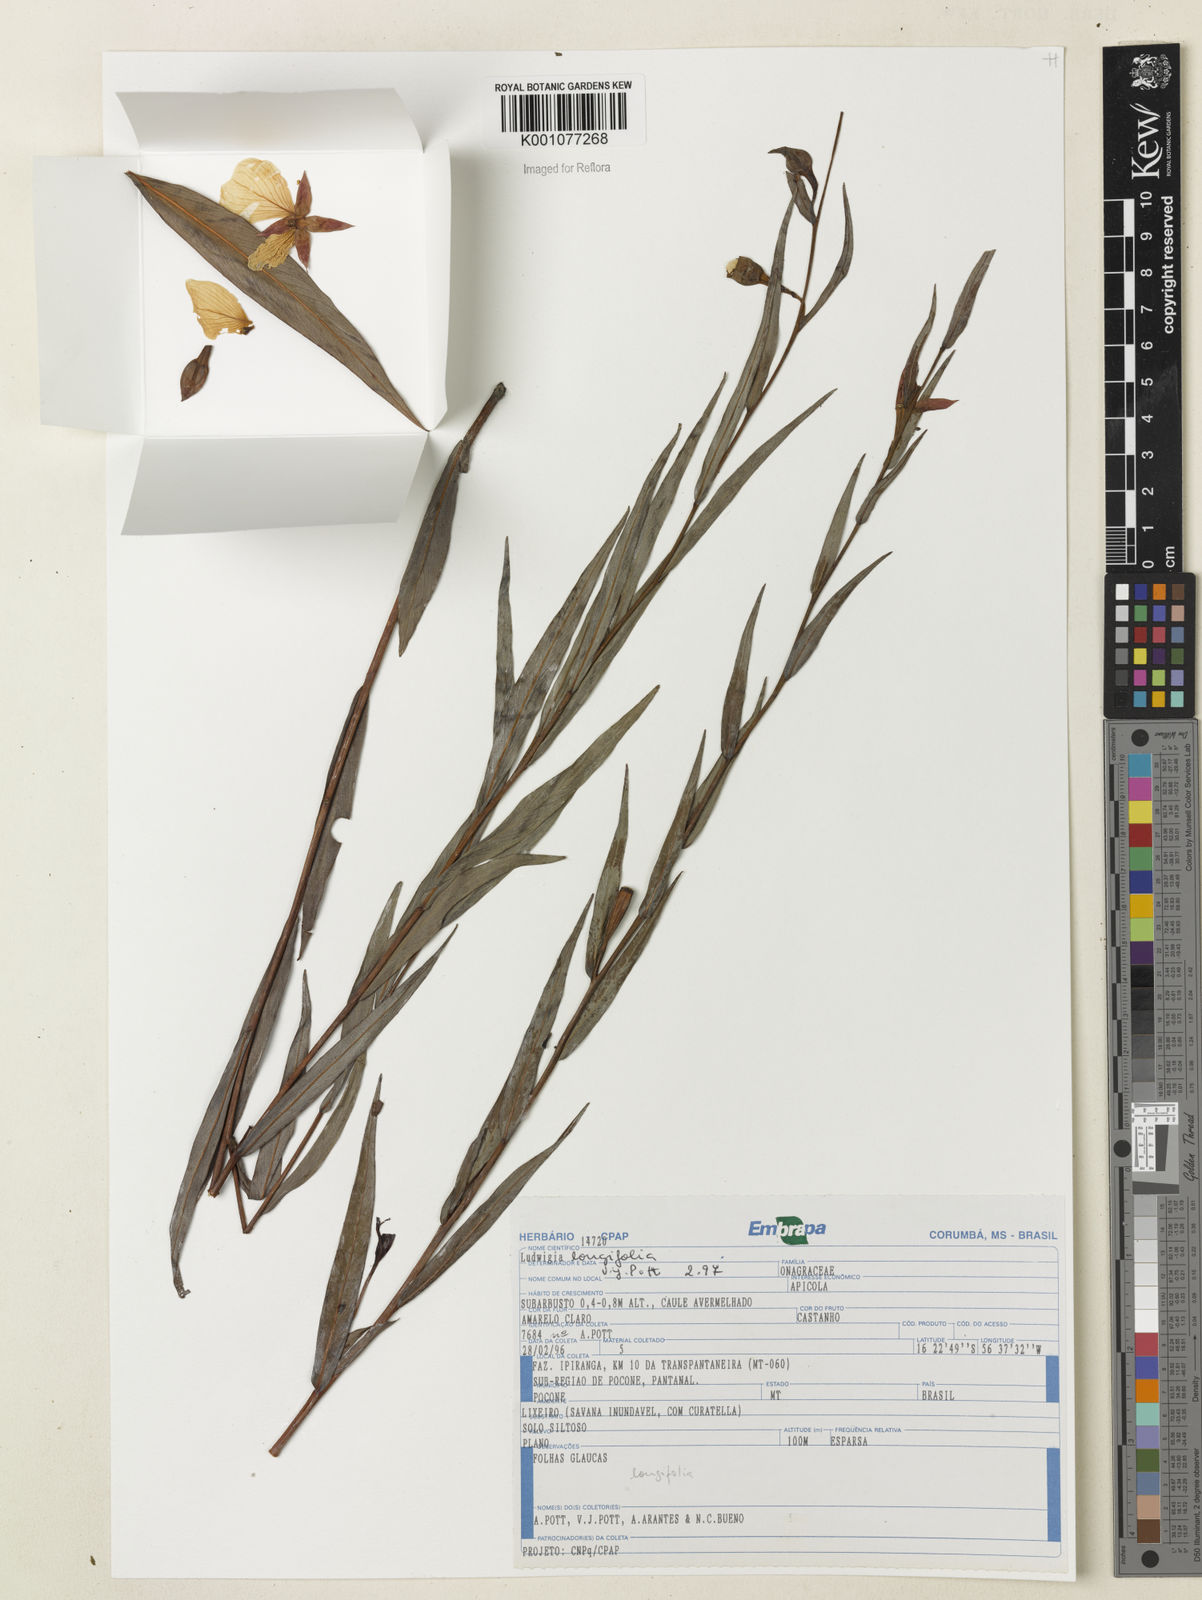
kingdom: Plantae
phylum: Tracheophyta
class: Magnoliopsida
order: Myrtales
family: Onagraceae
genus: Ludwigia
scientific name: Ludwigia longifolia
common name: Longleaf primrose-willow
